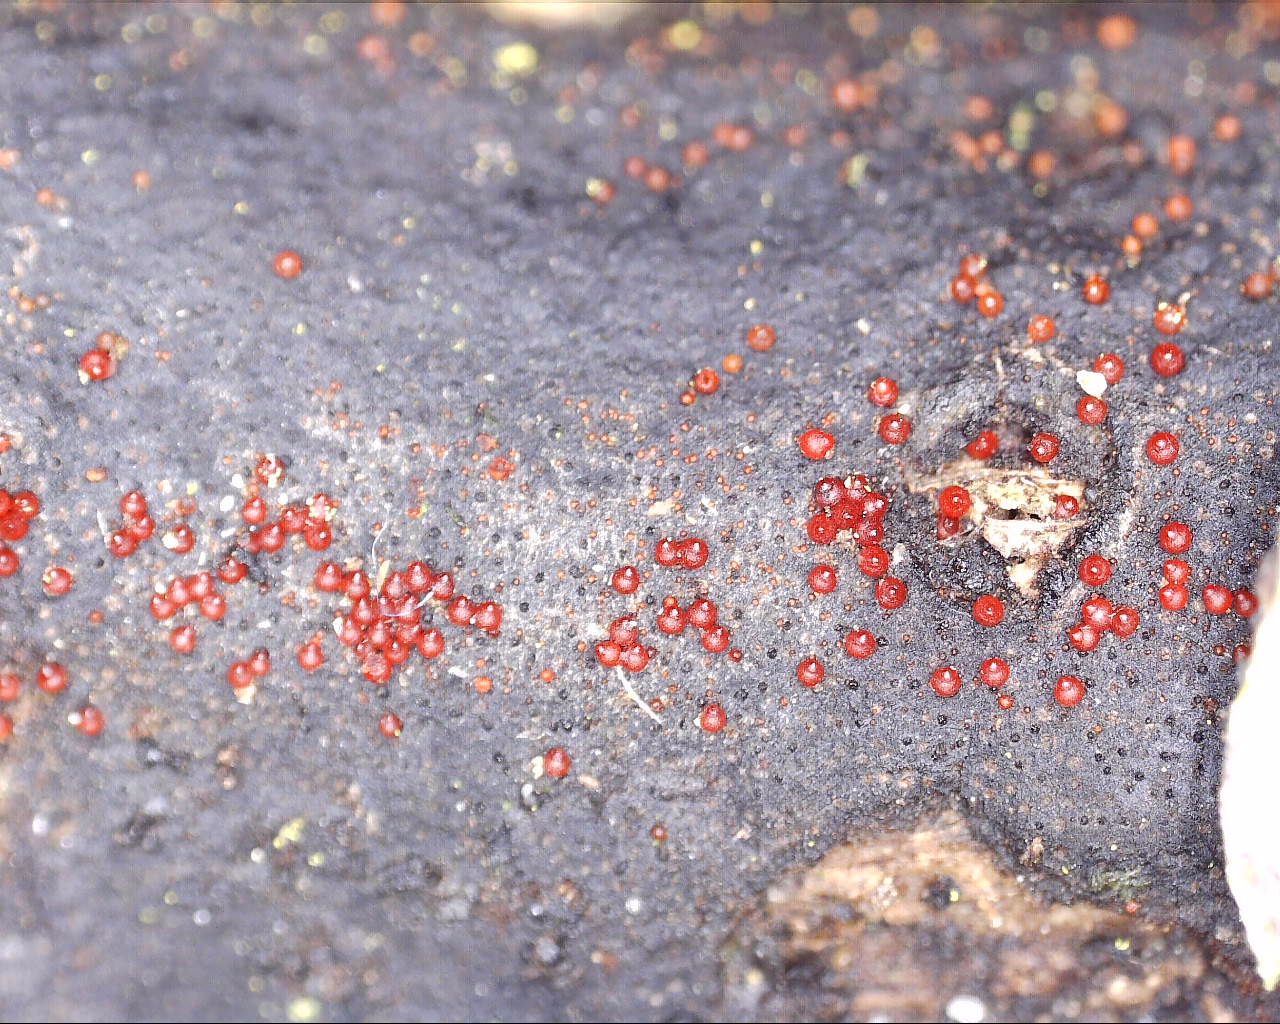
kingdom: Fungi
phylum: Ascomycota
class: Sordariomycetes
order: Xylariales
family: Diatrypaceae
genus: Diatrype
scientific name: Diatrype decorticata
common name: barksprænger-kulskorpe
